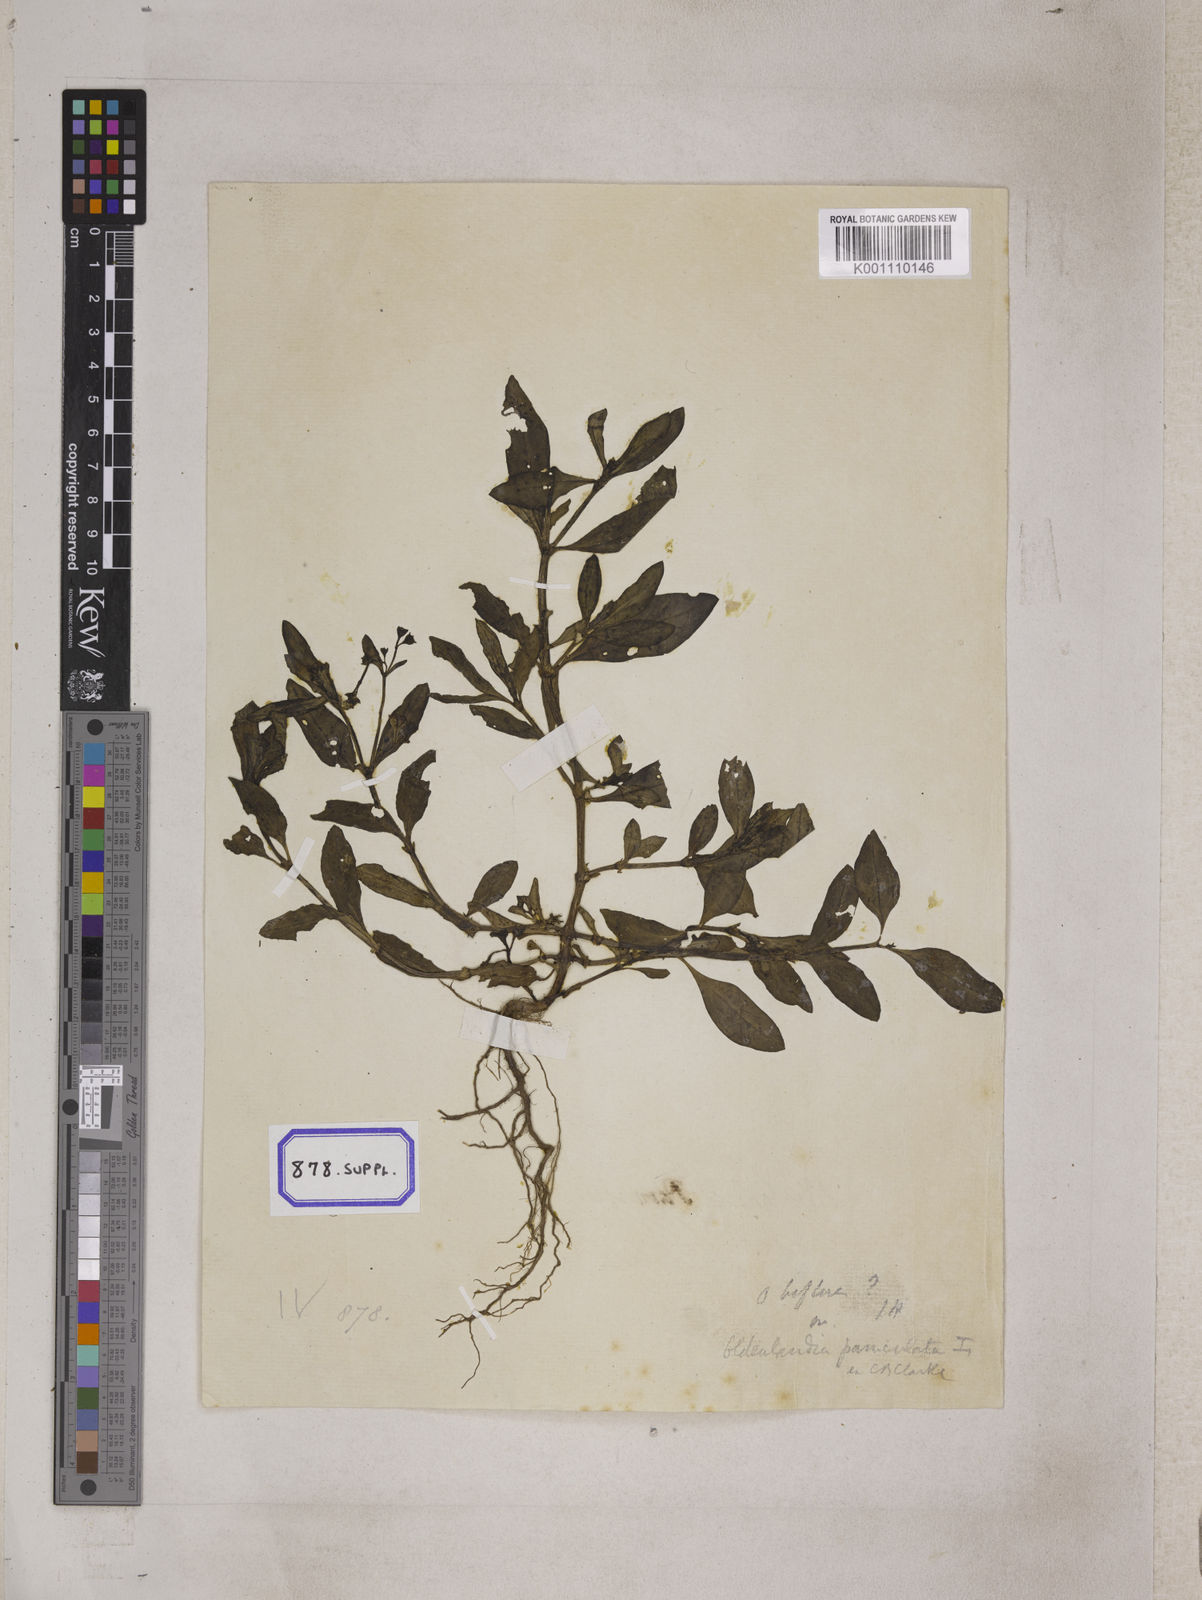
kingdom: Plantae
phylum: Tracheophyta
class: Magnoliopsida
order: Gentianales
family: Rubiaceae
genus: Neanotis
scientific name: Neanotis calycina
